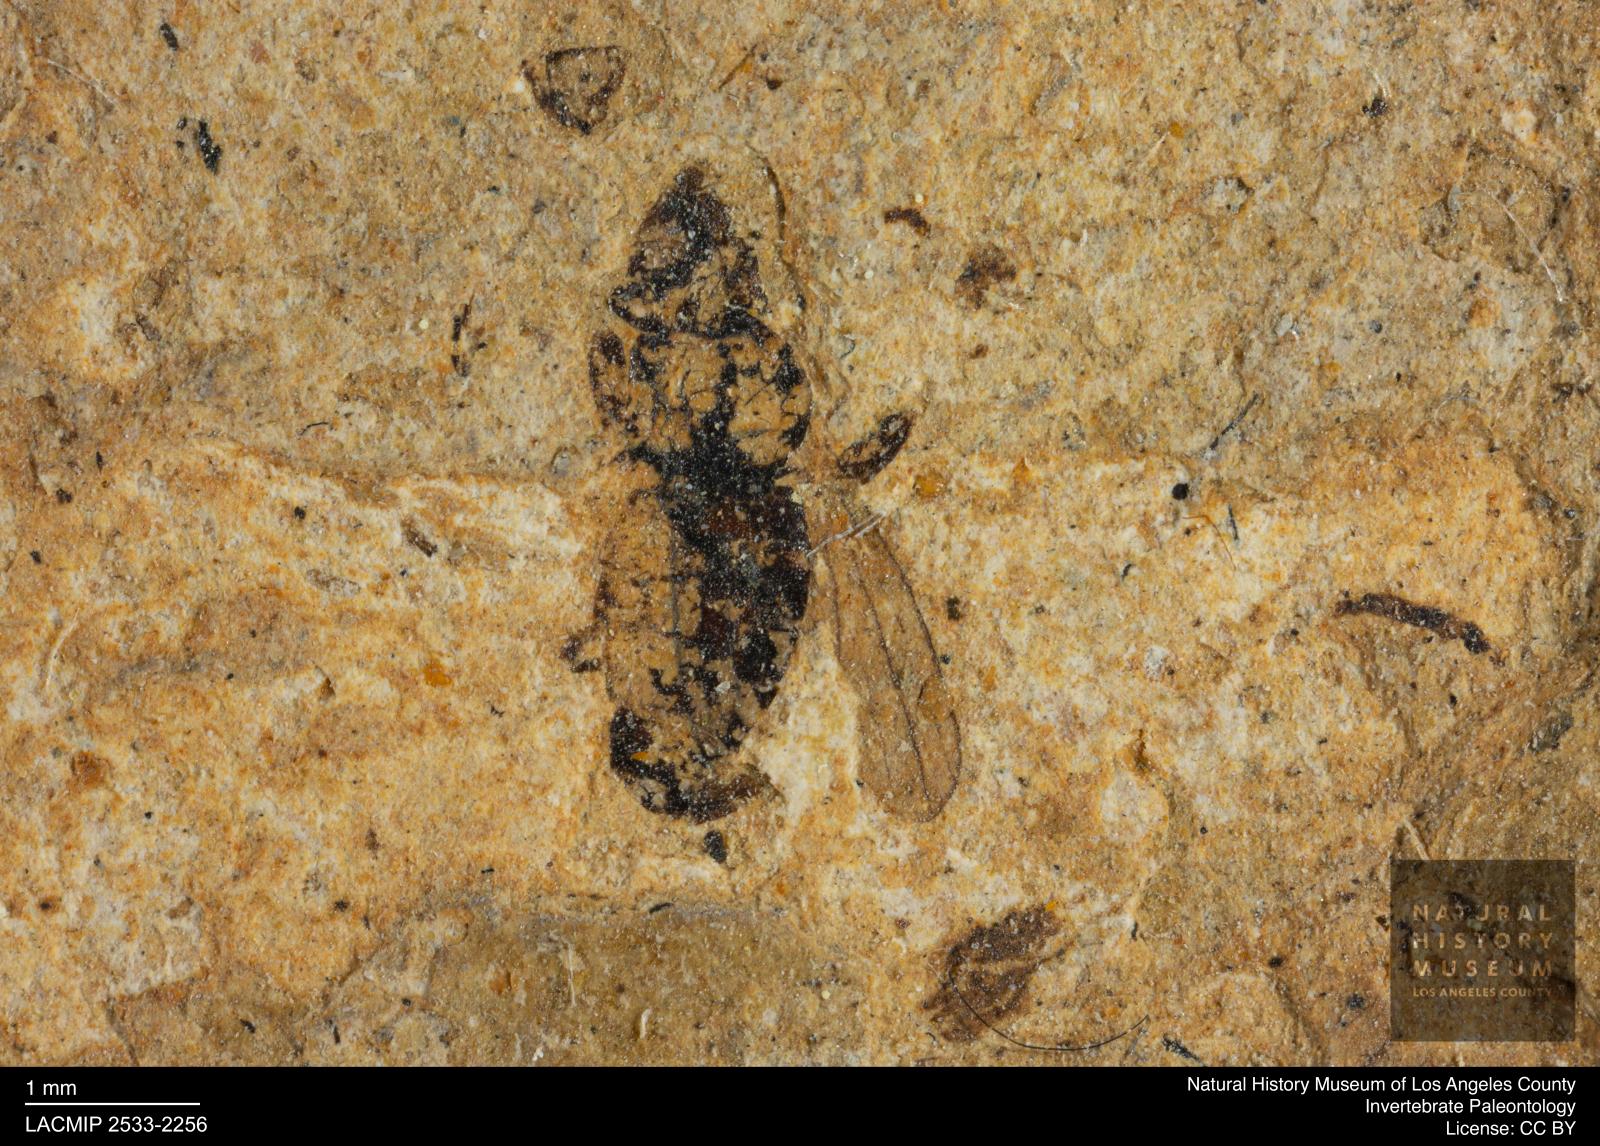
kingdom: Animalia
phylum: Arthropoda
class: Insecta
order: Diptera
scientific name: Diptera
